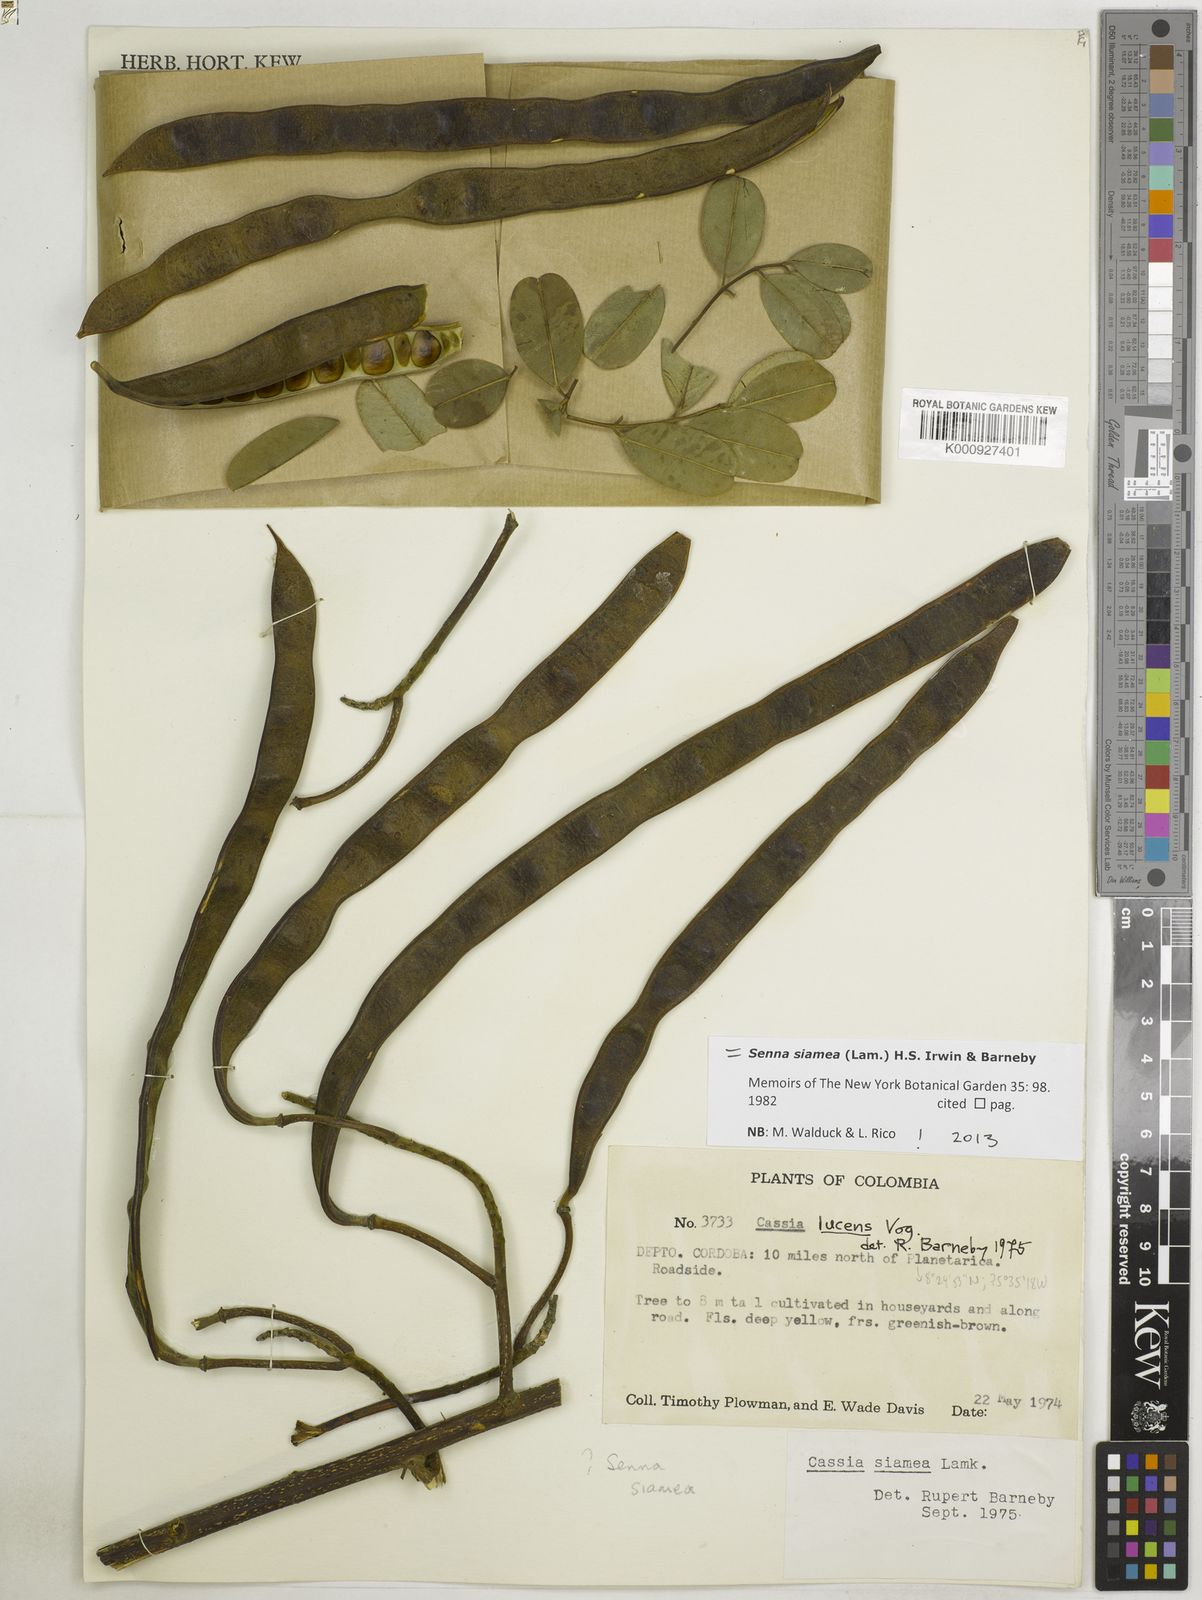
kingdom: Plantae
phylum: Tracheophyta
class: Magnoliopsida
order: Fabales
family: Fabaceae
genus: Senna
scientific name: Senna siamea
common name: Siamese cassia
